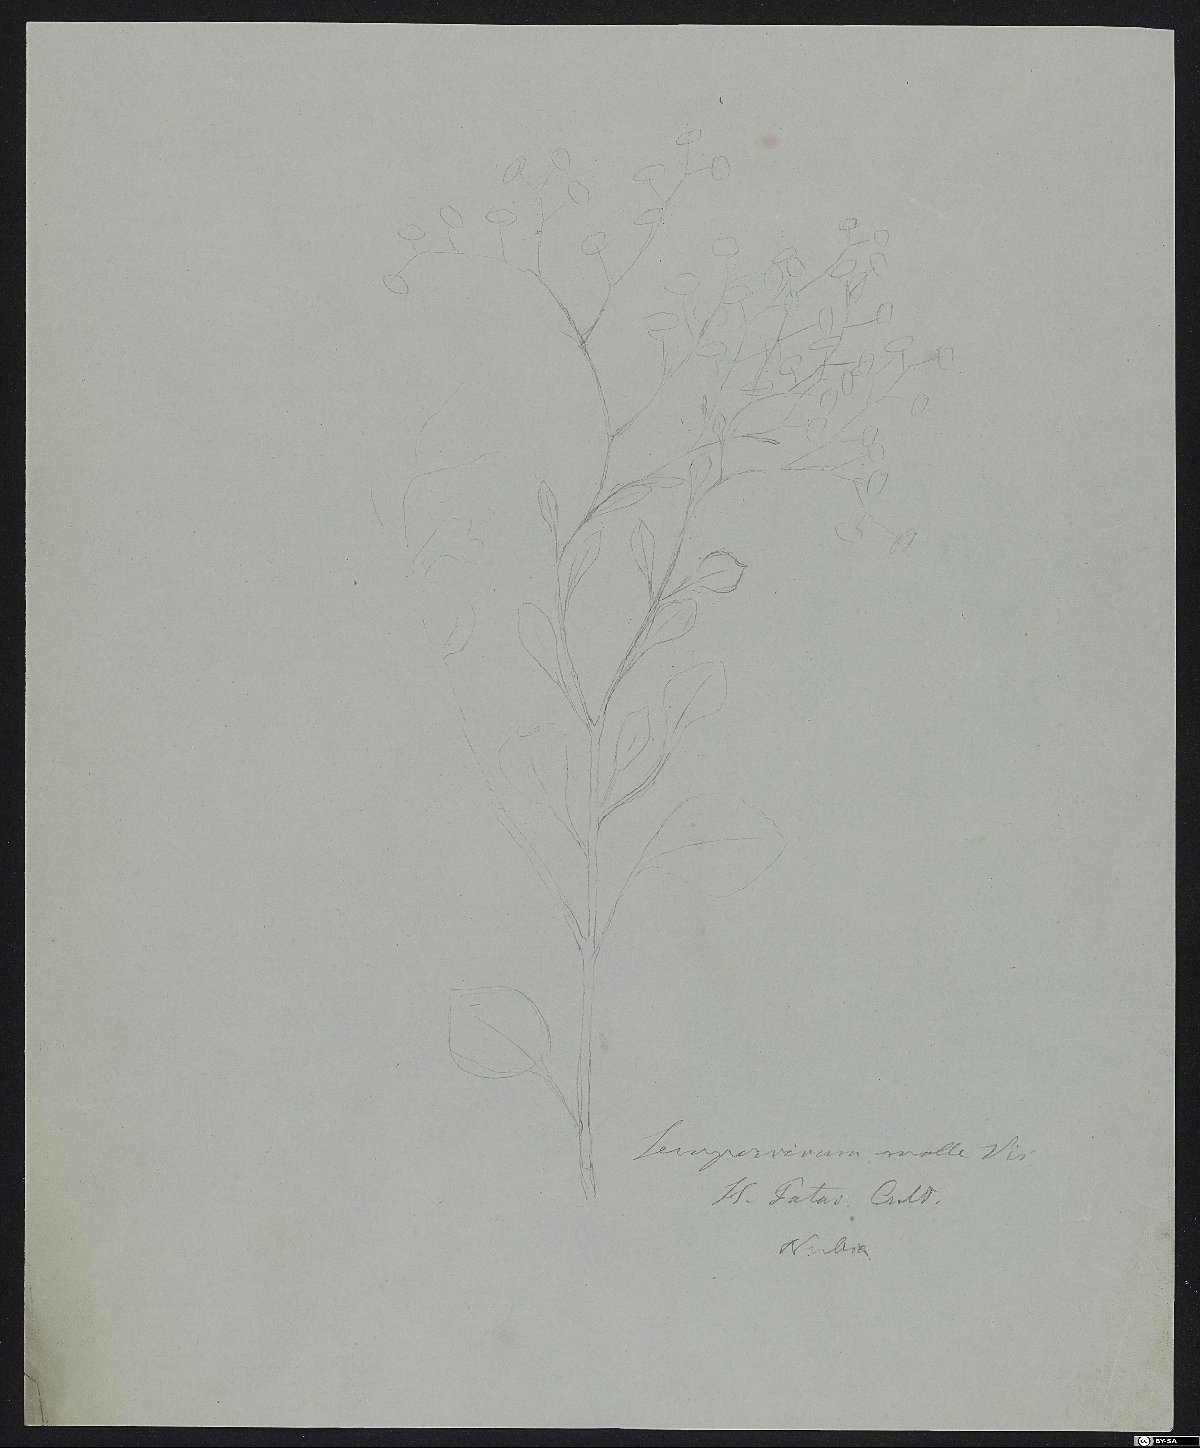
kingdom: Plantae
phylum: Tracheophyta
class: Magnoliopsida
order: Saxifragales
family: Crassulaceae
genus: Aichryson
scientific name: Aichryson laxum
